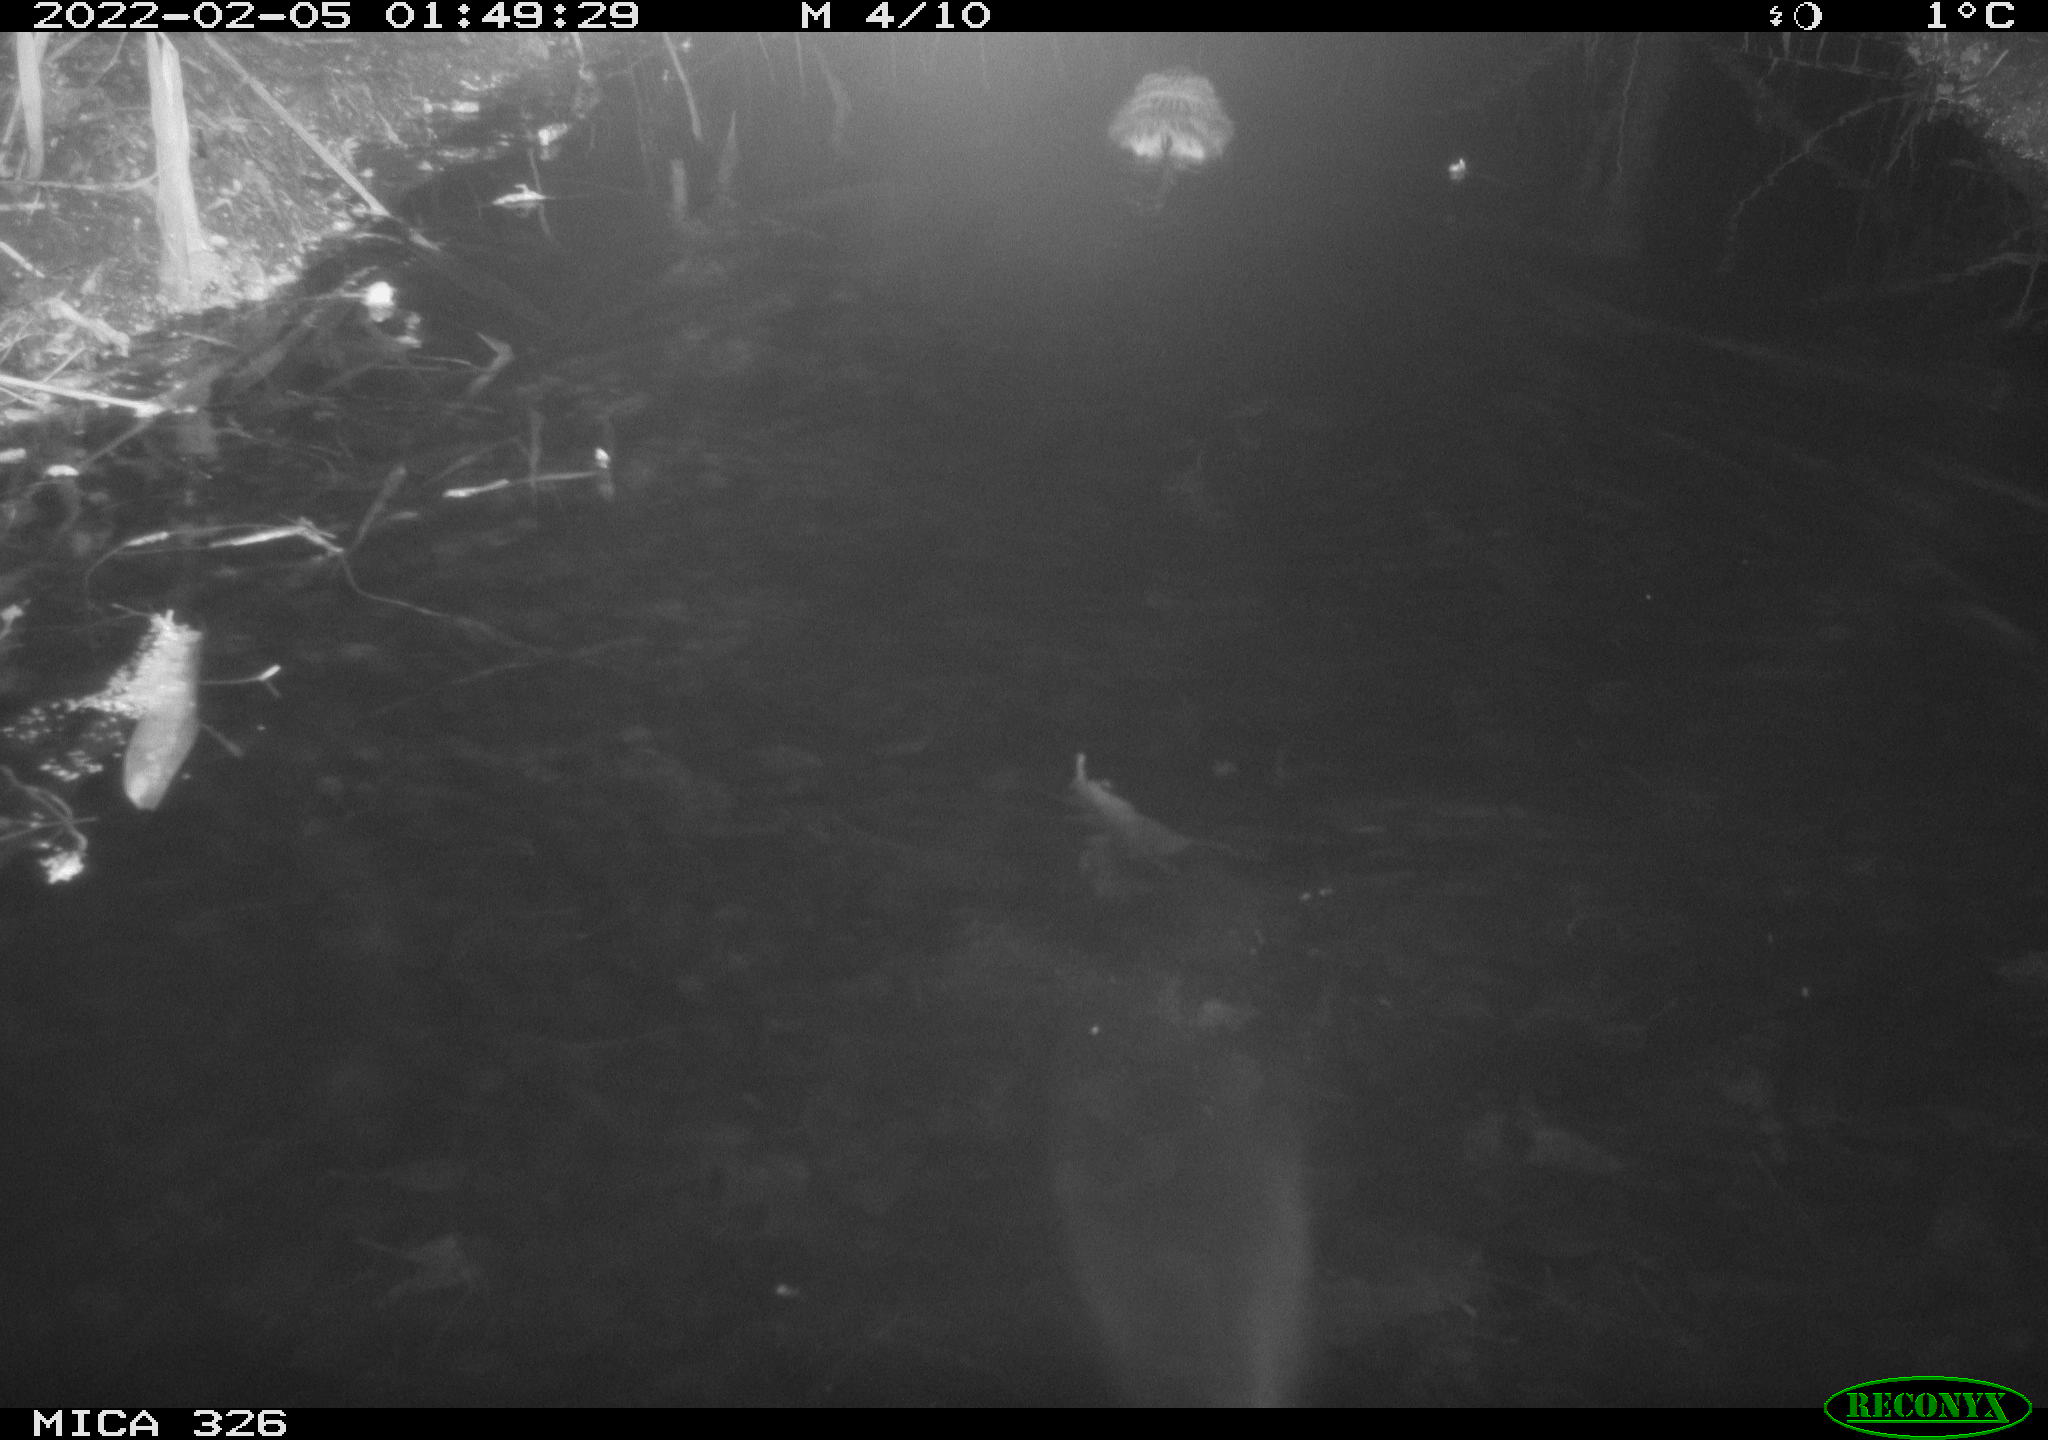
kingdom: Animalia
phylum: Chordata
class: Mammalia
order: Rodentia
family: Cricetidae
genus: Ondatra
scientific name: Ondatra zibethicus
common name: Muskrat
